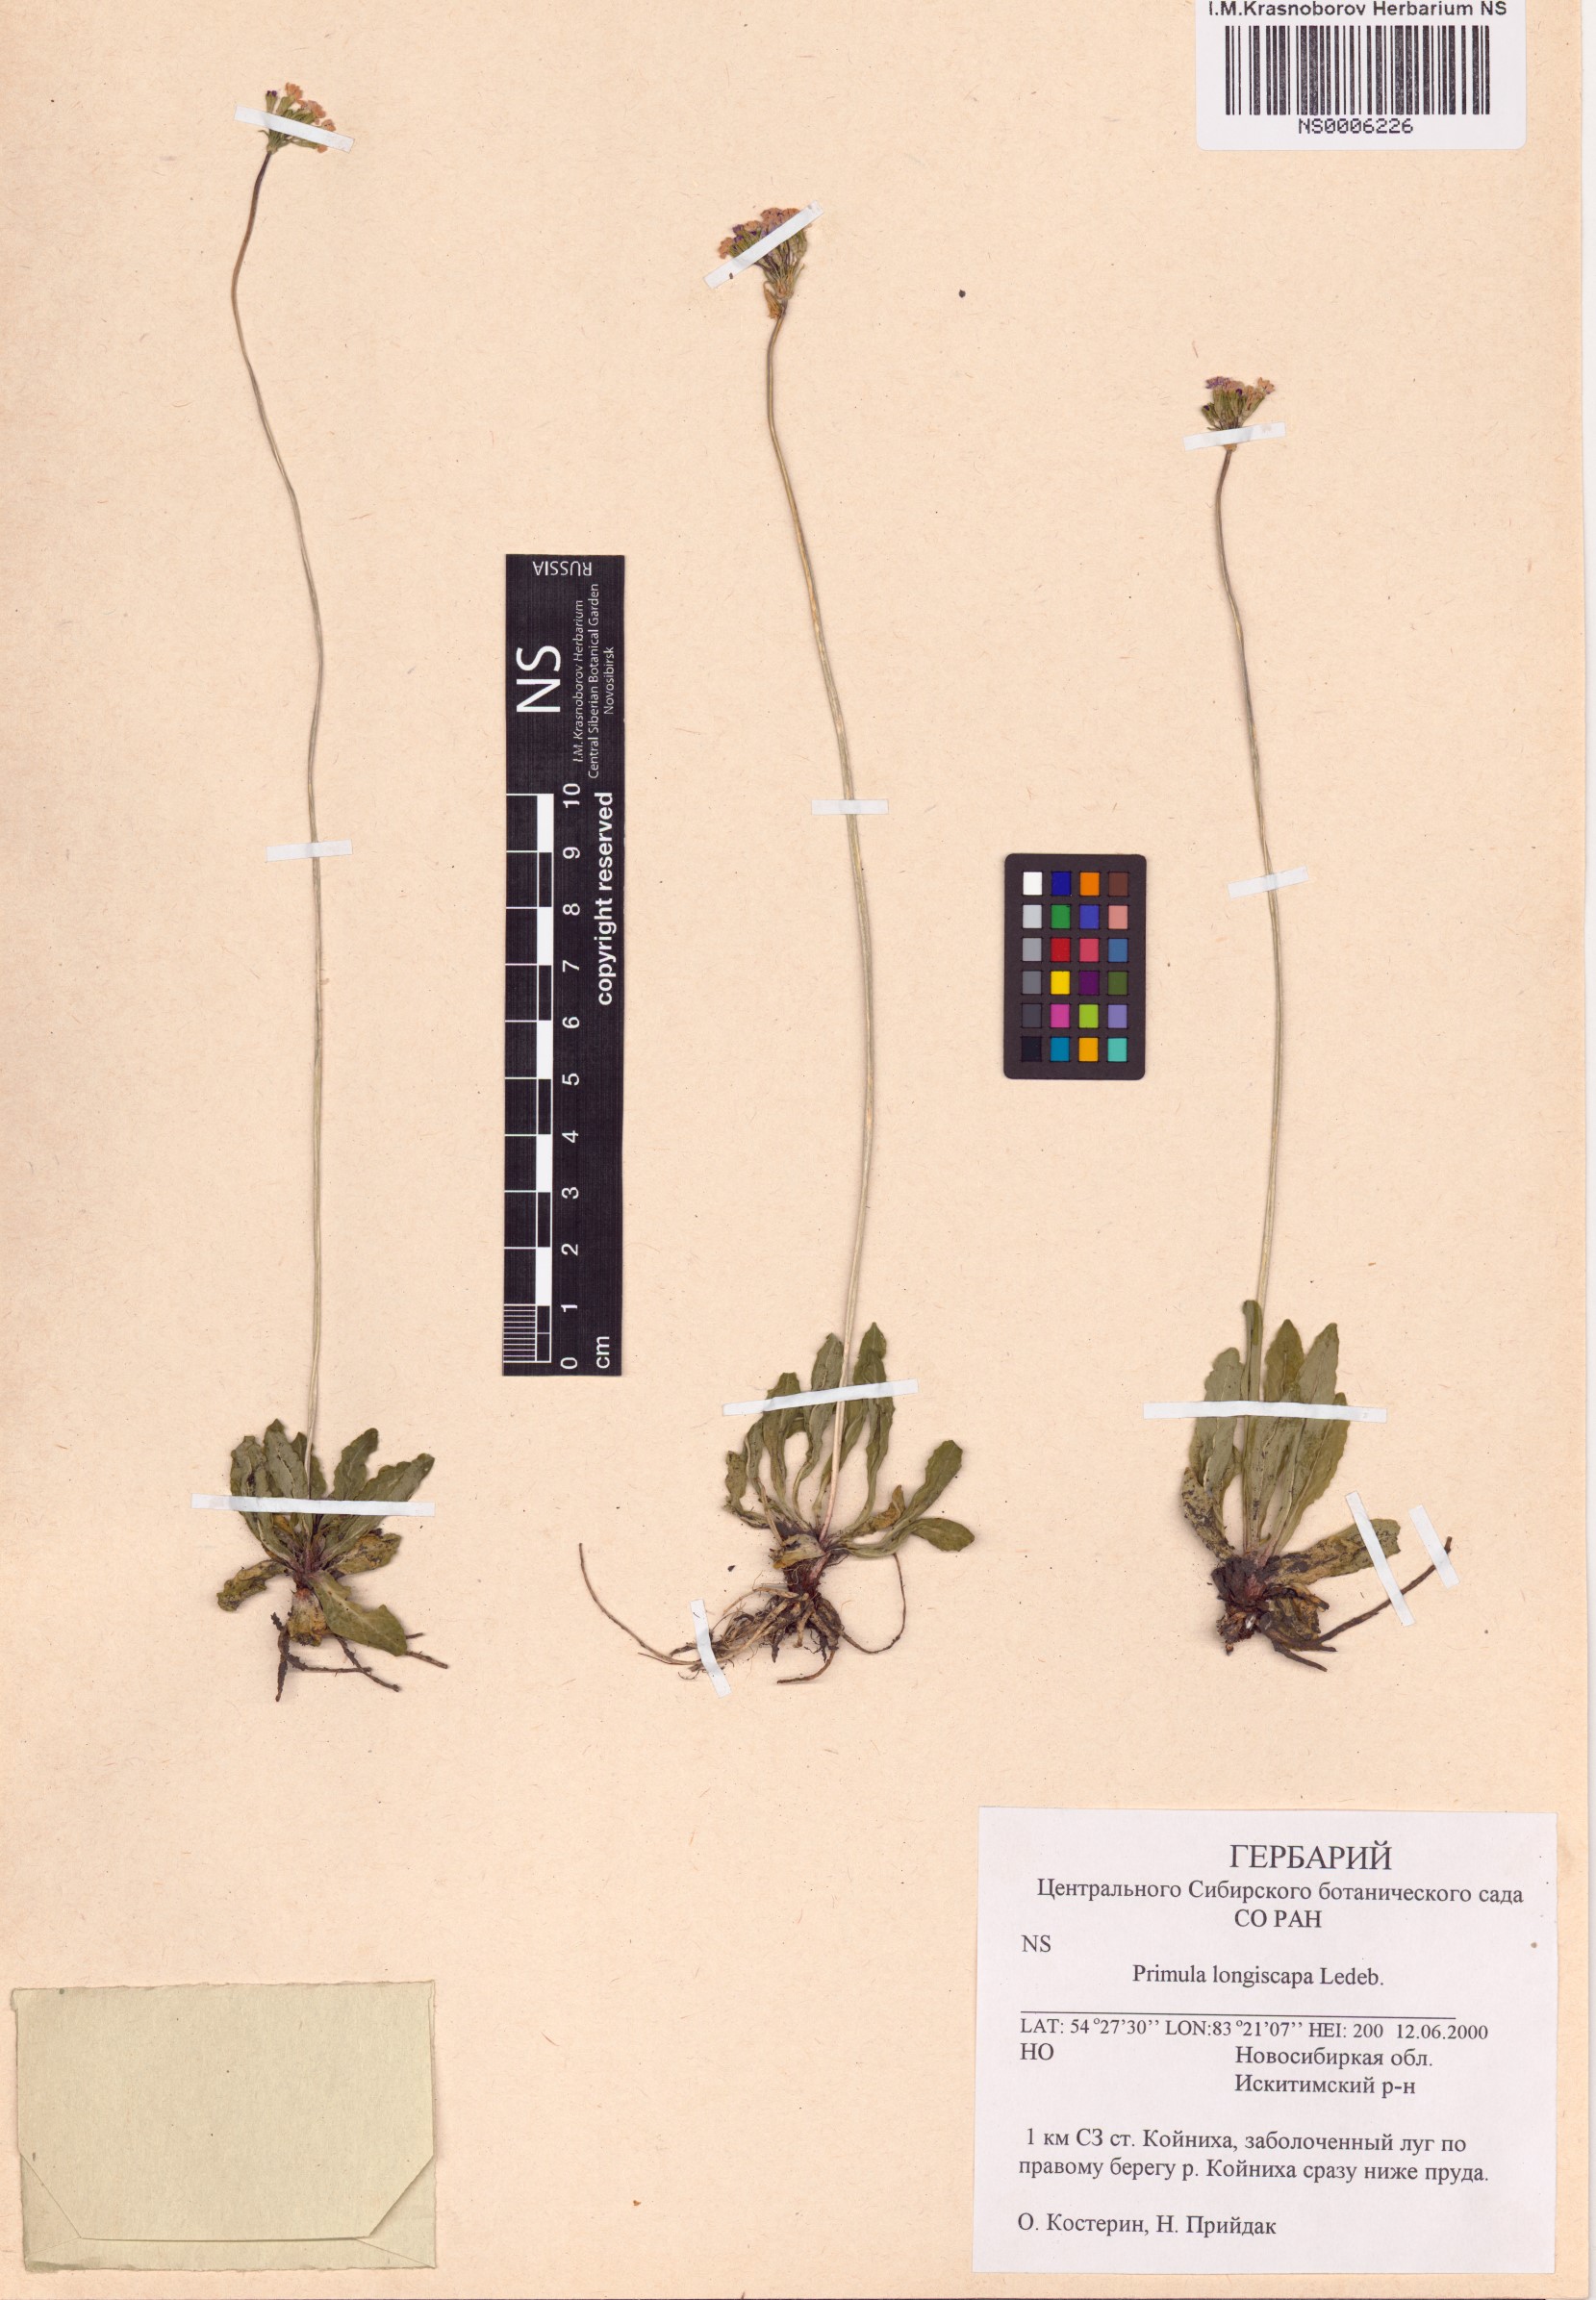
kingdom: Plantae
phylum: Tracheophyta
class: Magnoliopsida
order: Ericales
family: Primulaceae
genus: Primula
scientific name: Primula longiscapa
